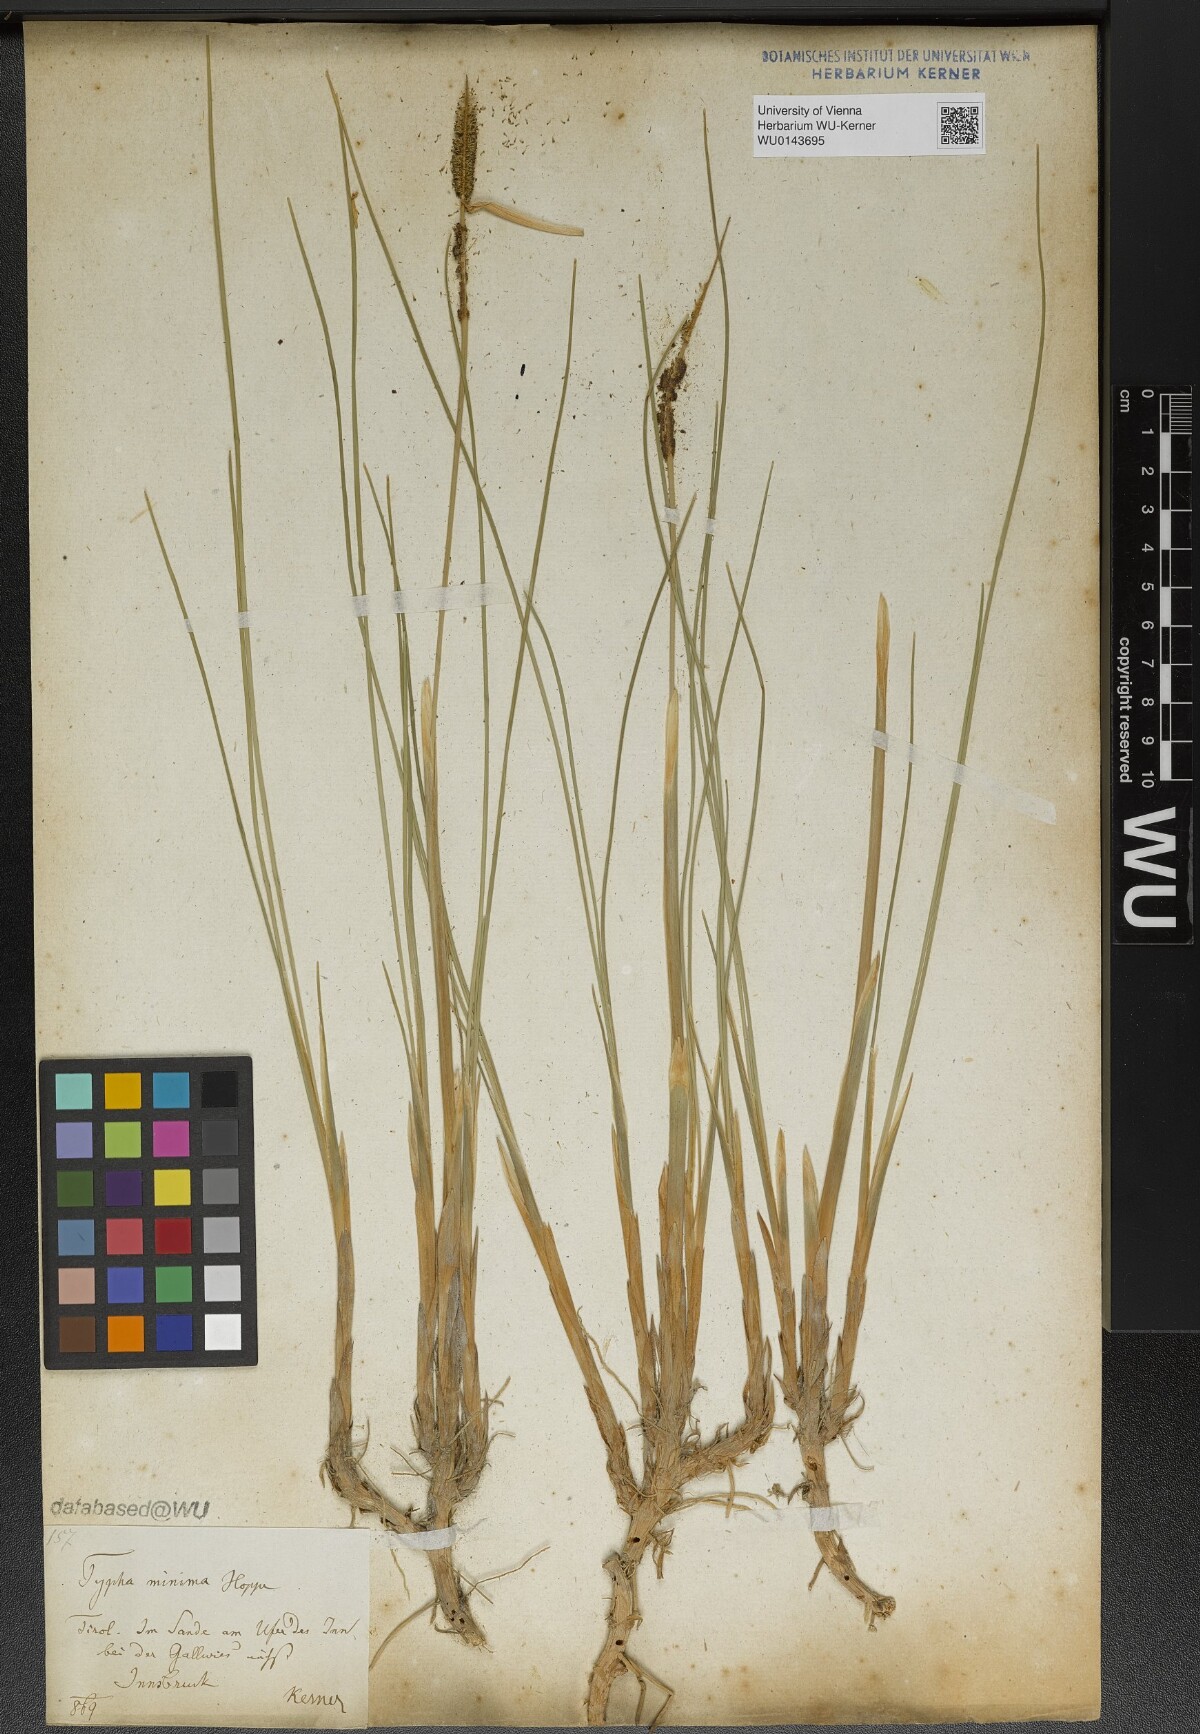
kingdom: Plantae
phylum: Tracheophyta
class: Liliopsida
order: Poales
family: Typhaceae
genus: Typha
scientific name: Typha minima
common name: Dwarf bulrush
